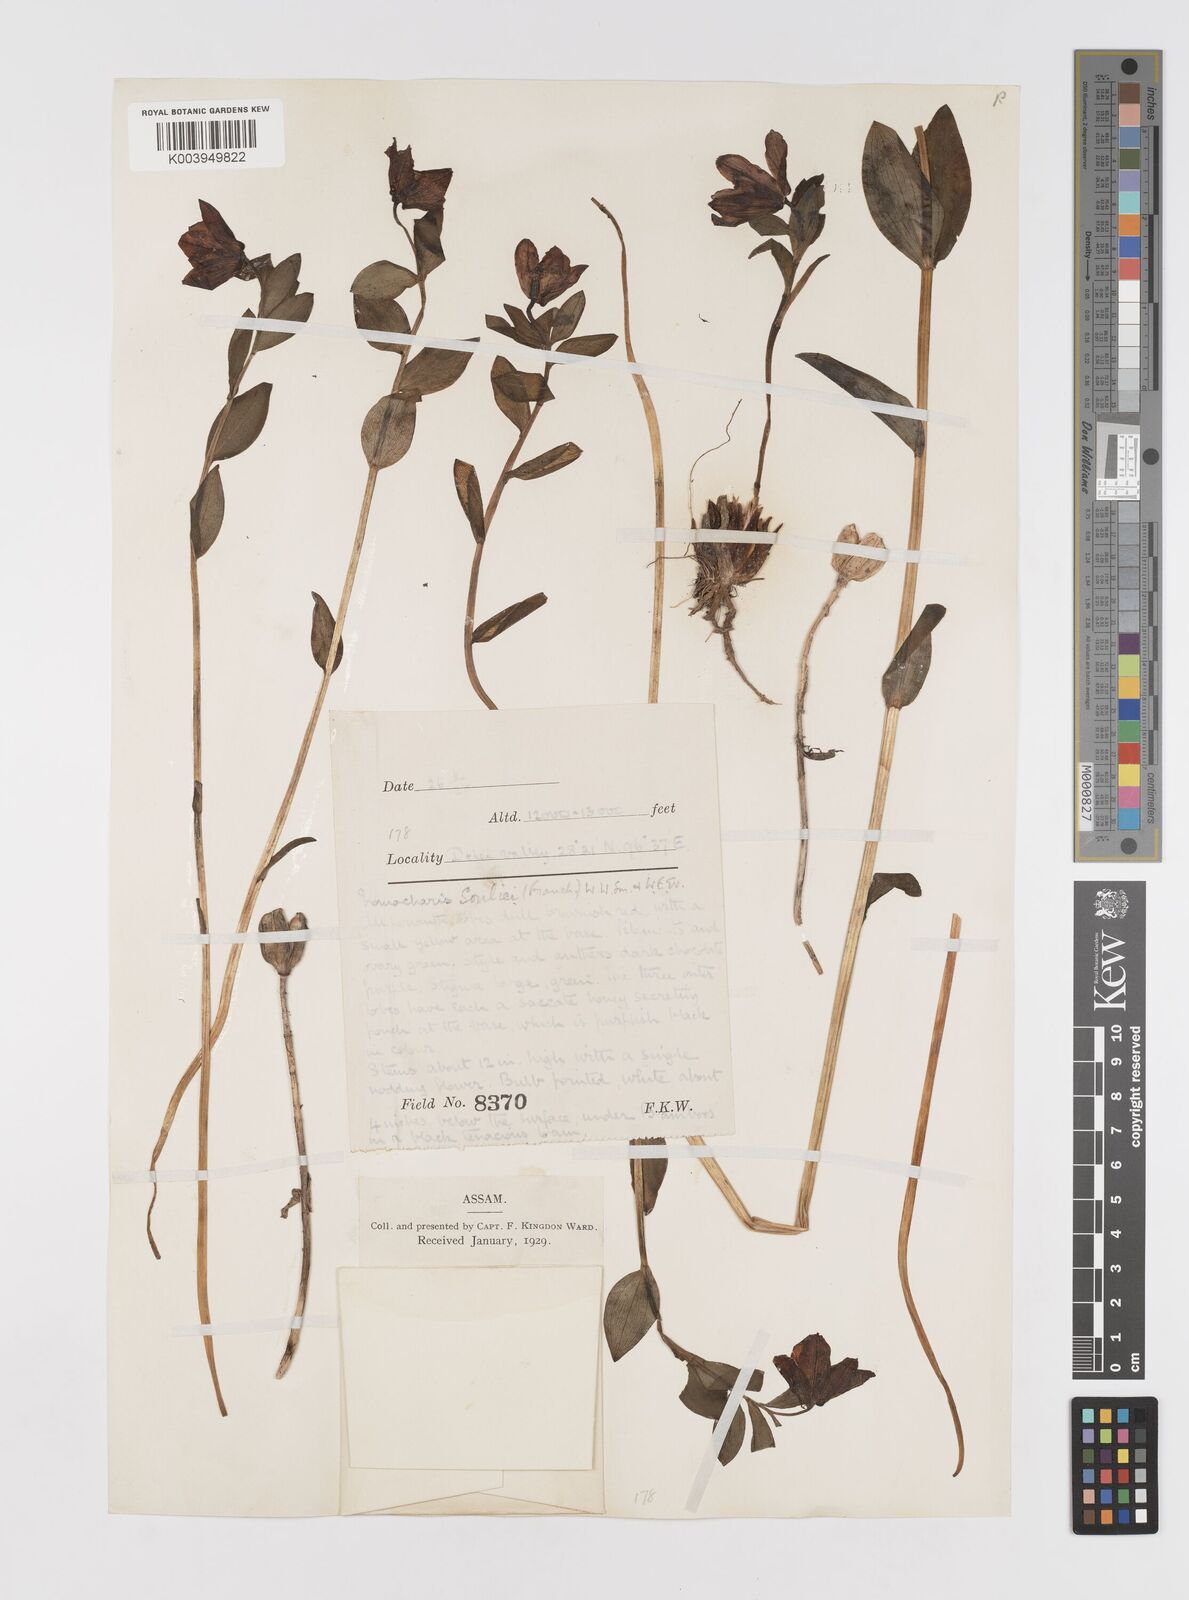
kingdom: Plantae
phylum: Tracheophyta
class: Liliopsida
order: Liliales
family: Liliaceae
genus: Lilium
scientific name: Lilium souliei
